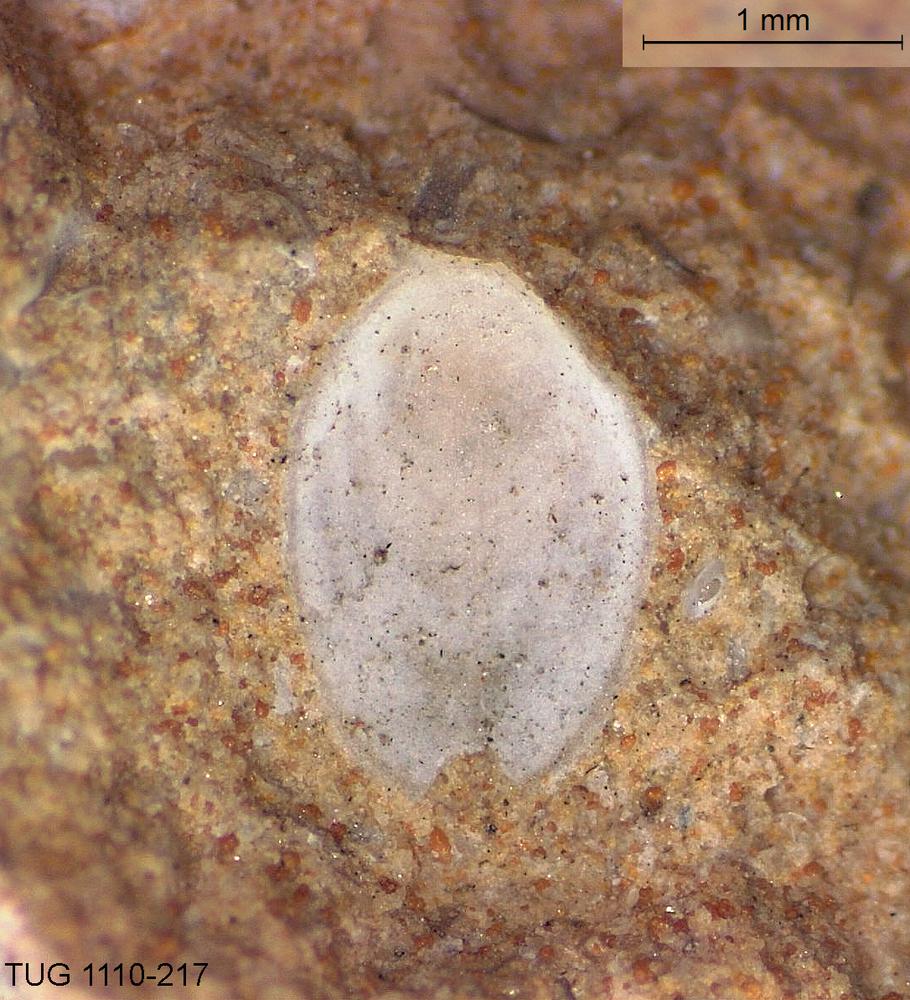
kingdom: Animalia
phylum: Brachiopoda
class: Craniata
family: Craniopsidae
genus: Craniops
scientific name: Craniops
